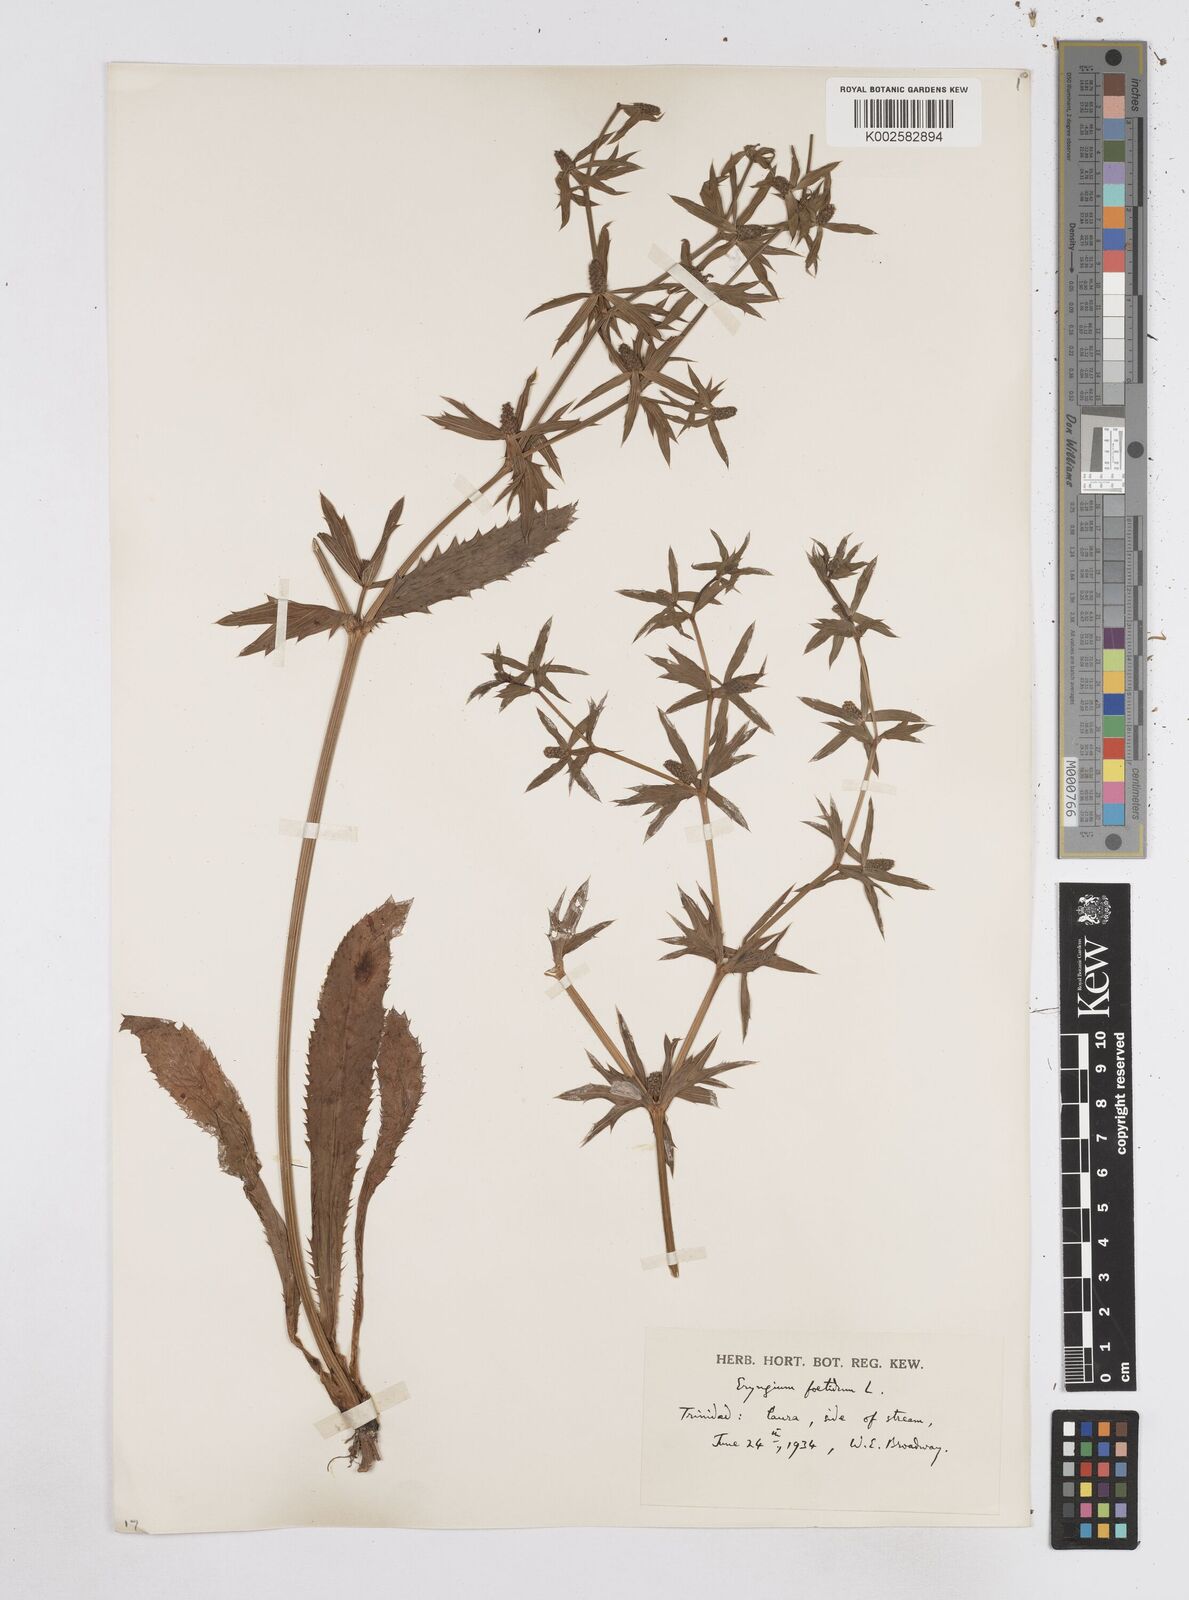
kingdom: Plantae
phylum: Tracheophyta
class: Magnoliopsida
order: Apiales
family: Apiaceae
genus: Eryngium
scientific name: Eryngium foetidum
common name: Fitweed
